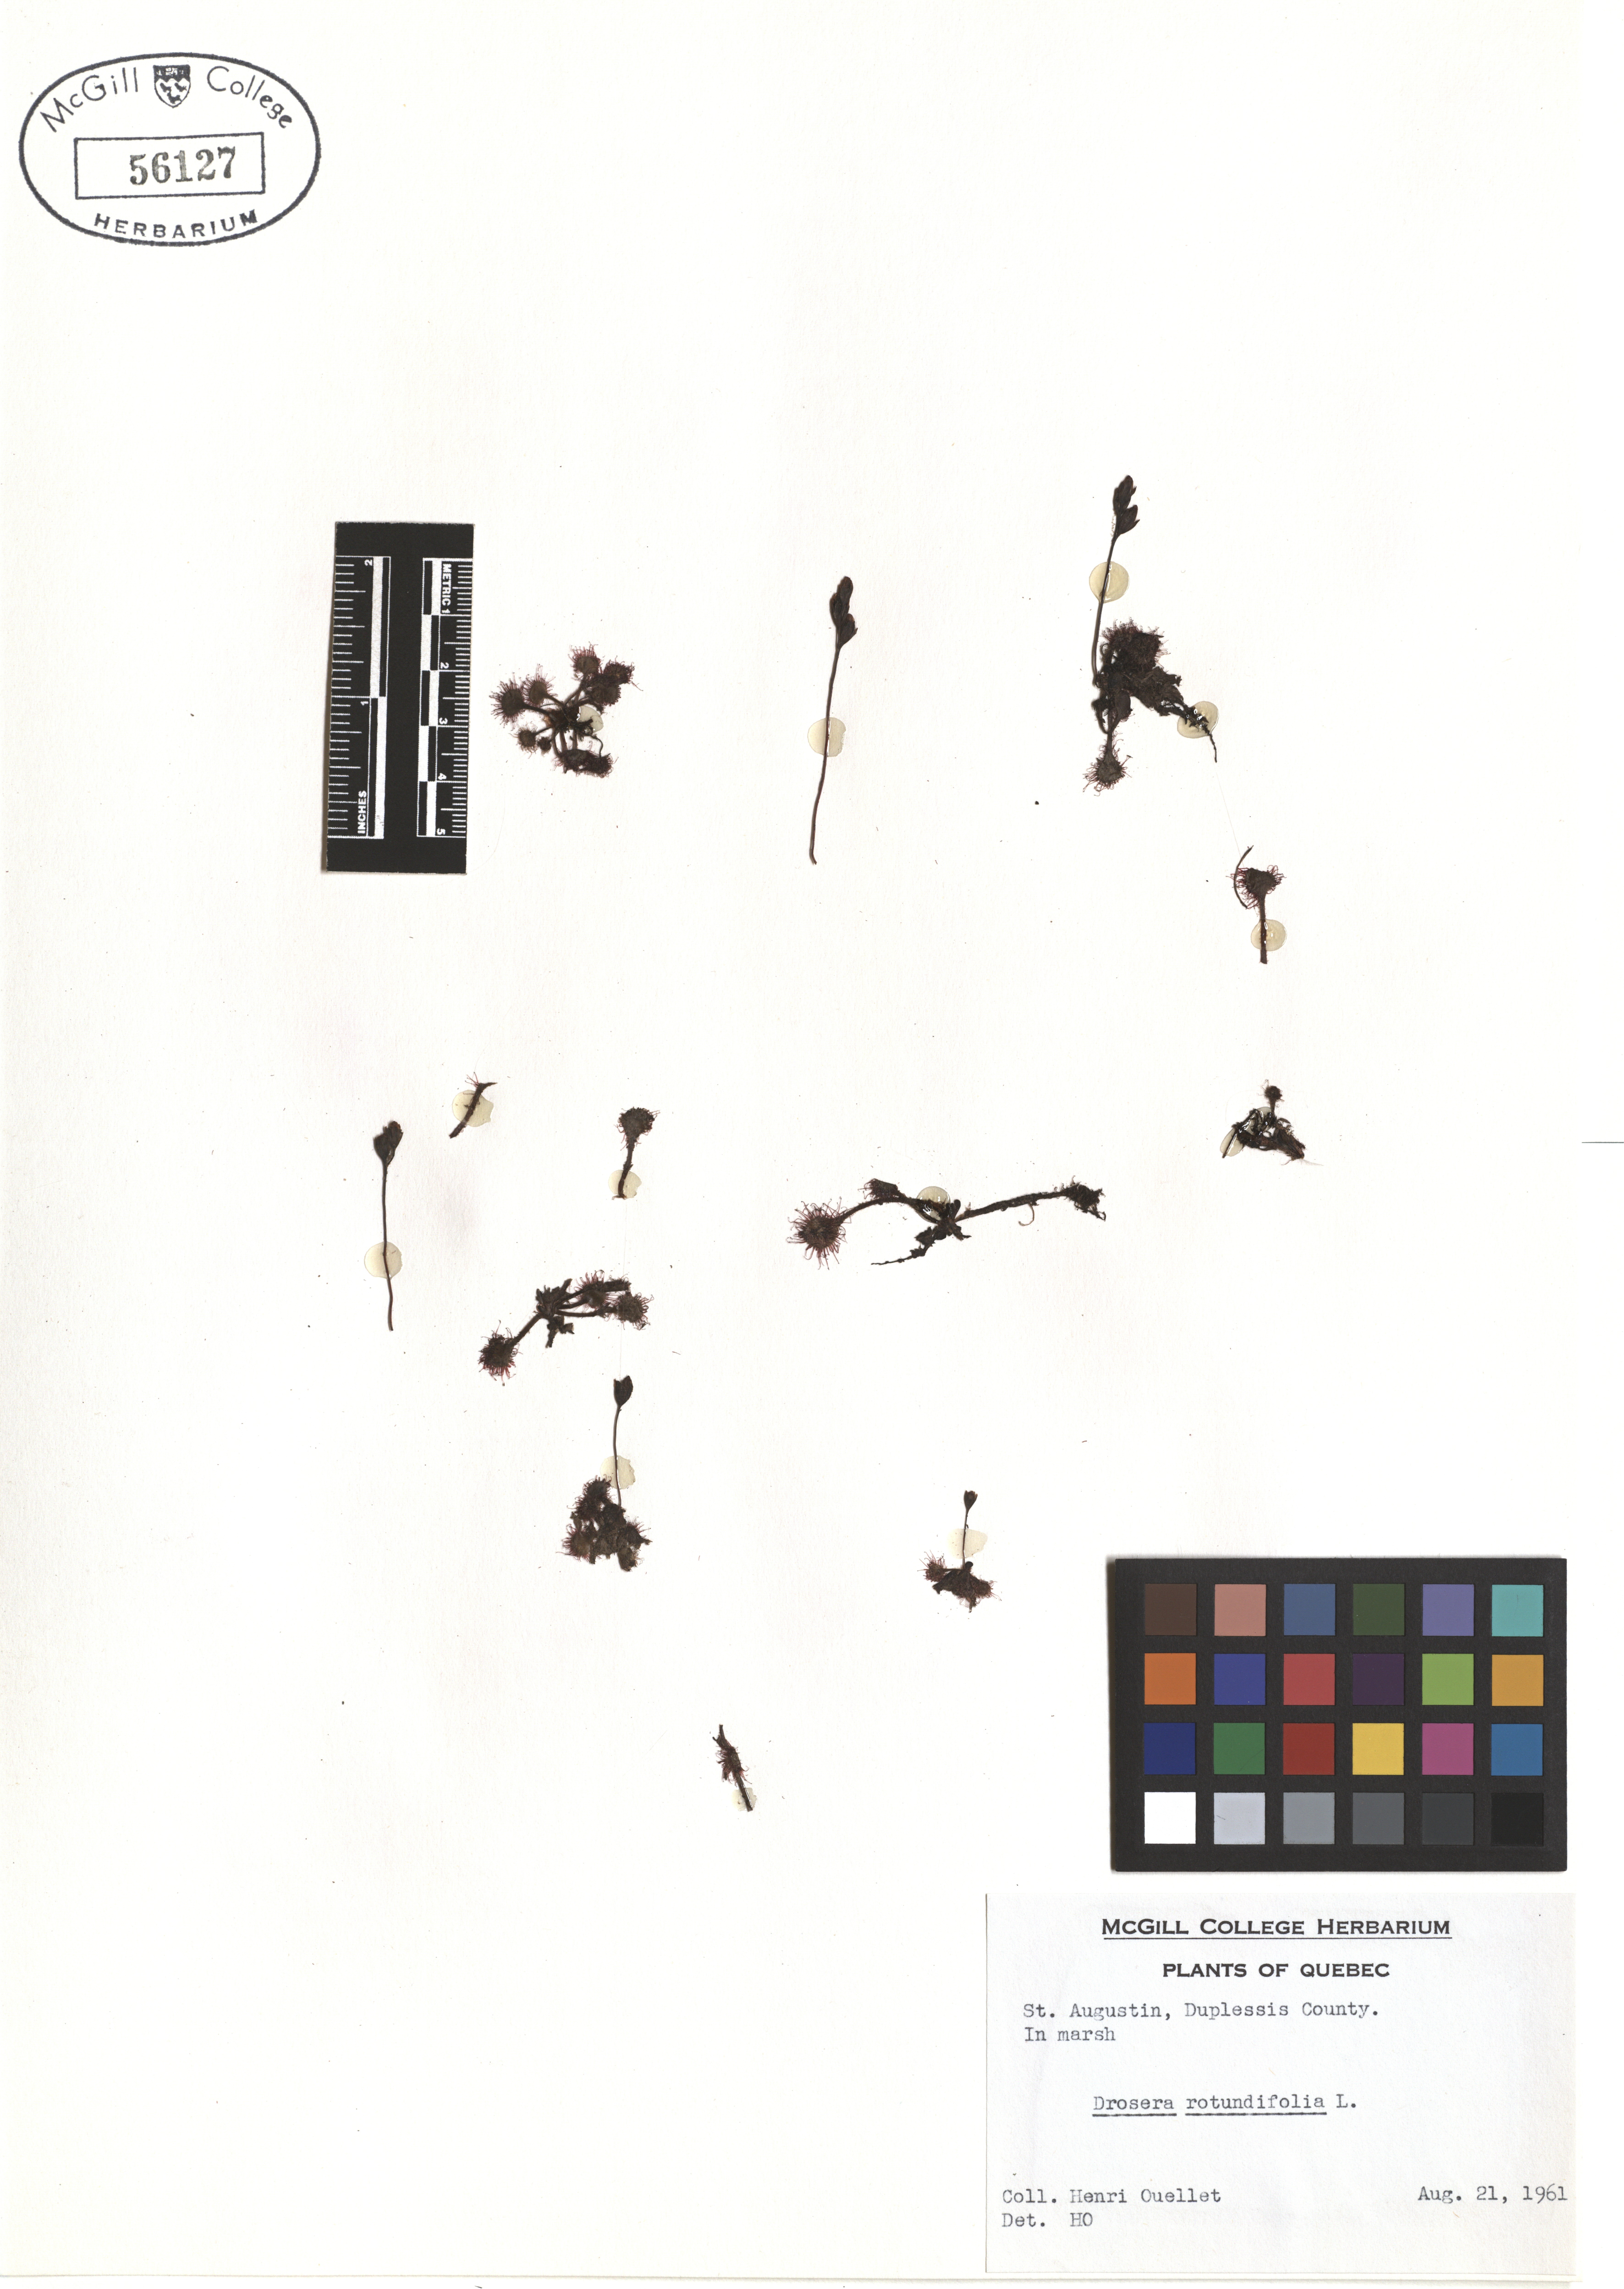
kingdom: Plantae
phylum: Tracheophyta
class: Magnoliopsida
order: Caryophyllales
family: Droseraceae
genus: Drosera
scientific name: Drosera rotundifolia
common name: Round-leaved sundew
